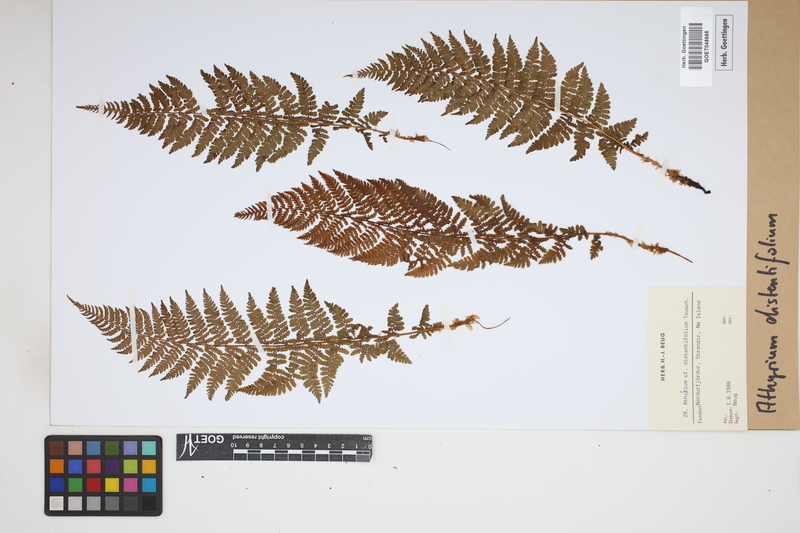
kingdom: Plantae
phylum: Tracheophyta
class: Polypodiopsida
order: Polypodiales
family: Athyriaceae
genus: Pseudathyrium
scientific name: Pseudathyrium alpestre
